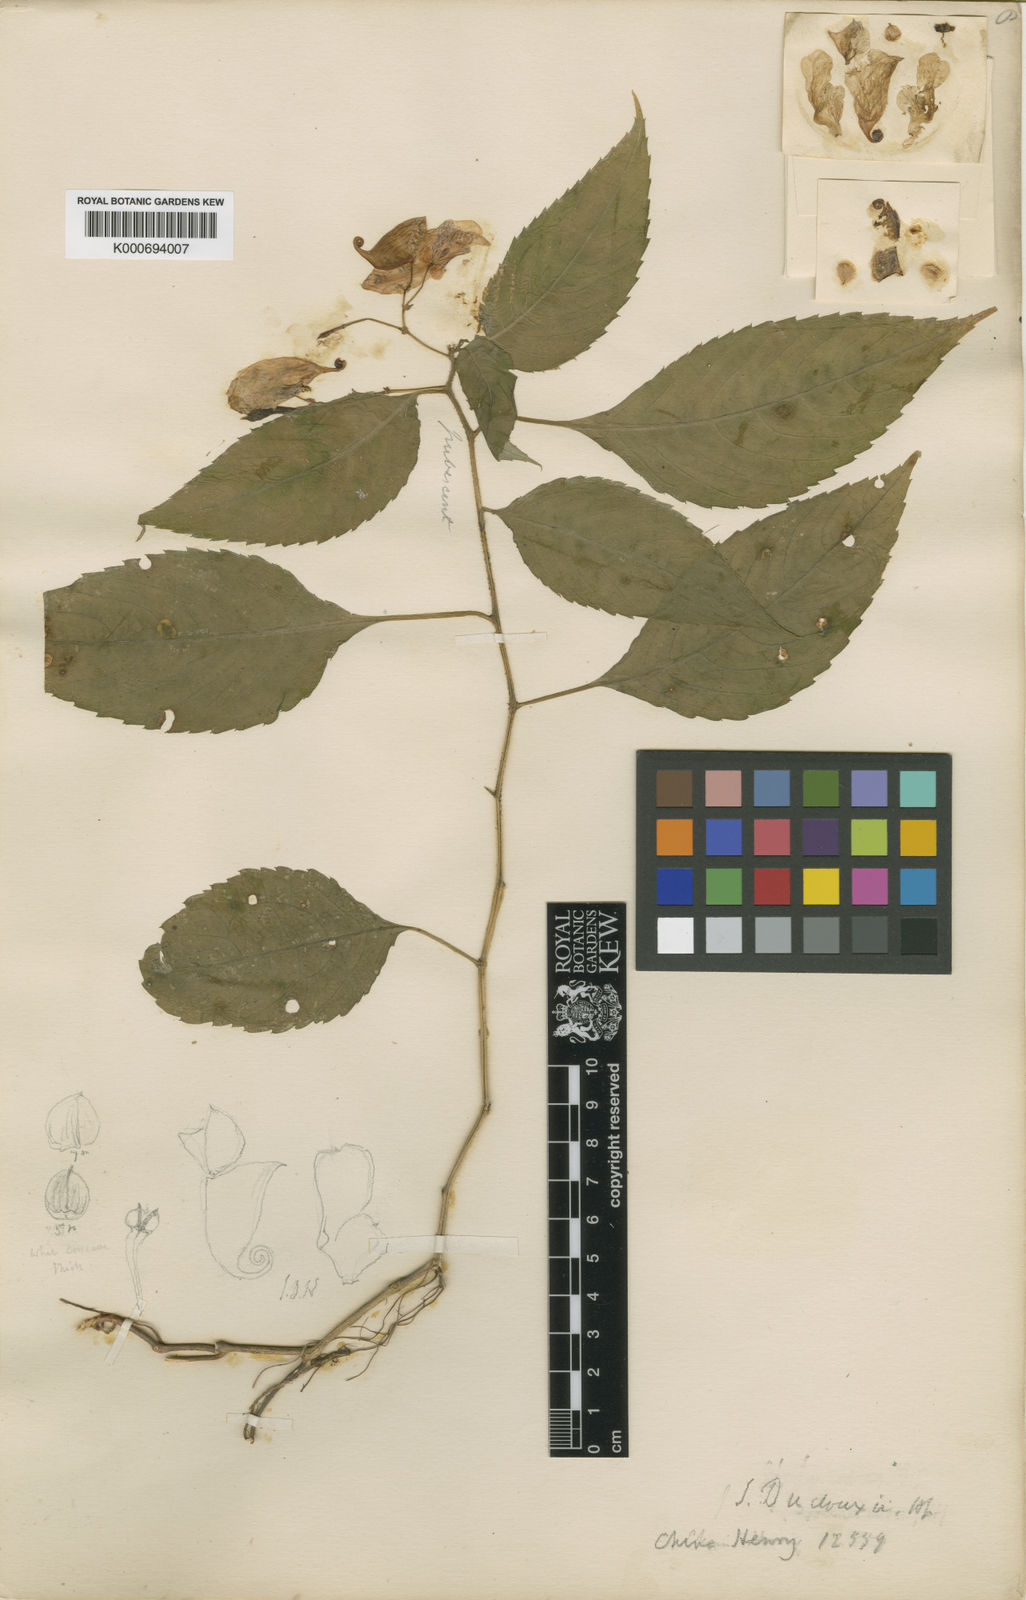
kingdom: Plantae
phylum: Tracheophyta
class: Magnoliopsida
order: Ericales
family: Balsaminaceae
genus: Impatiens
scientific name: Impatiens duclouxii
